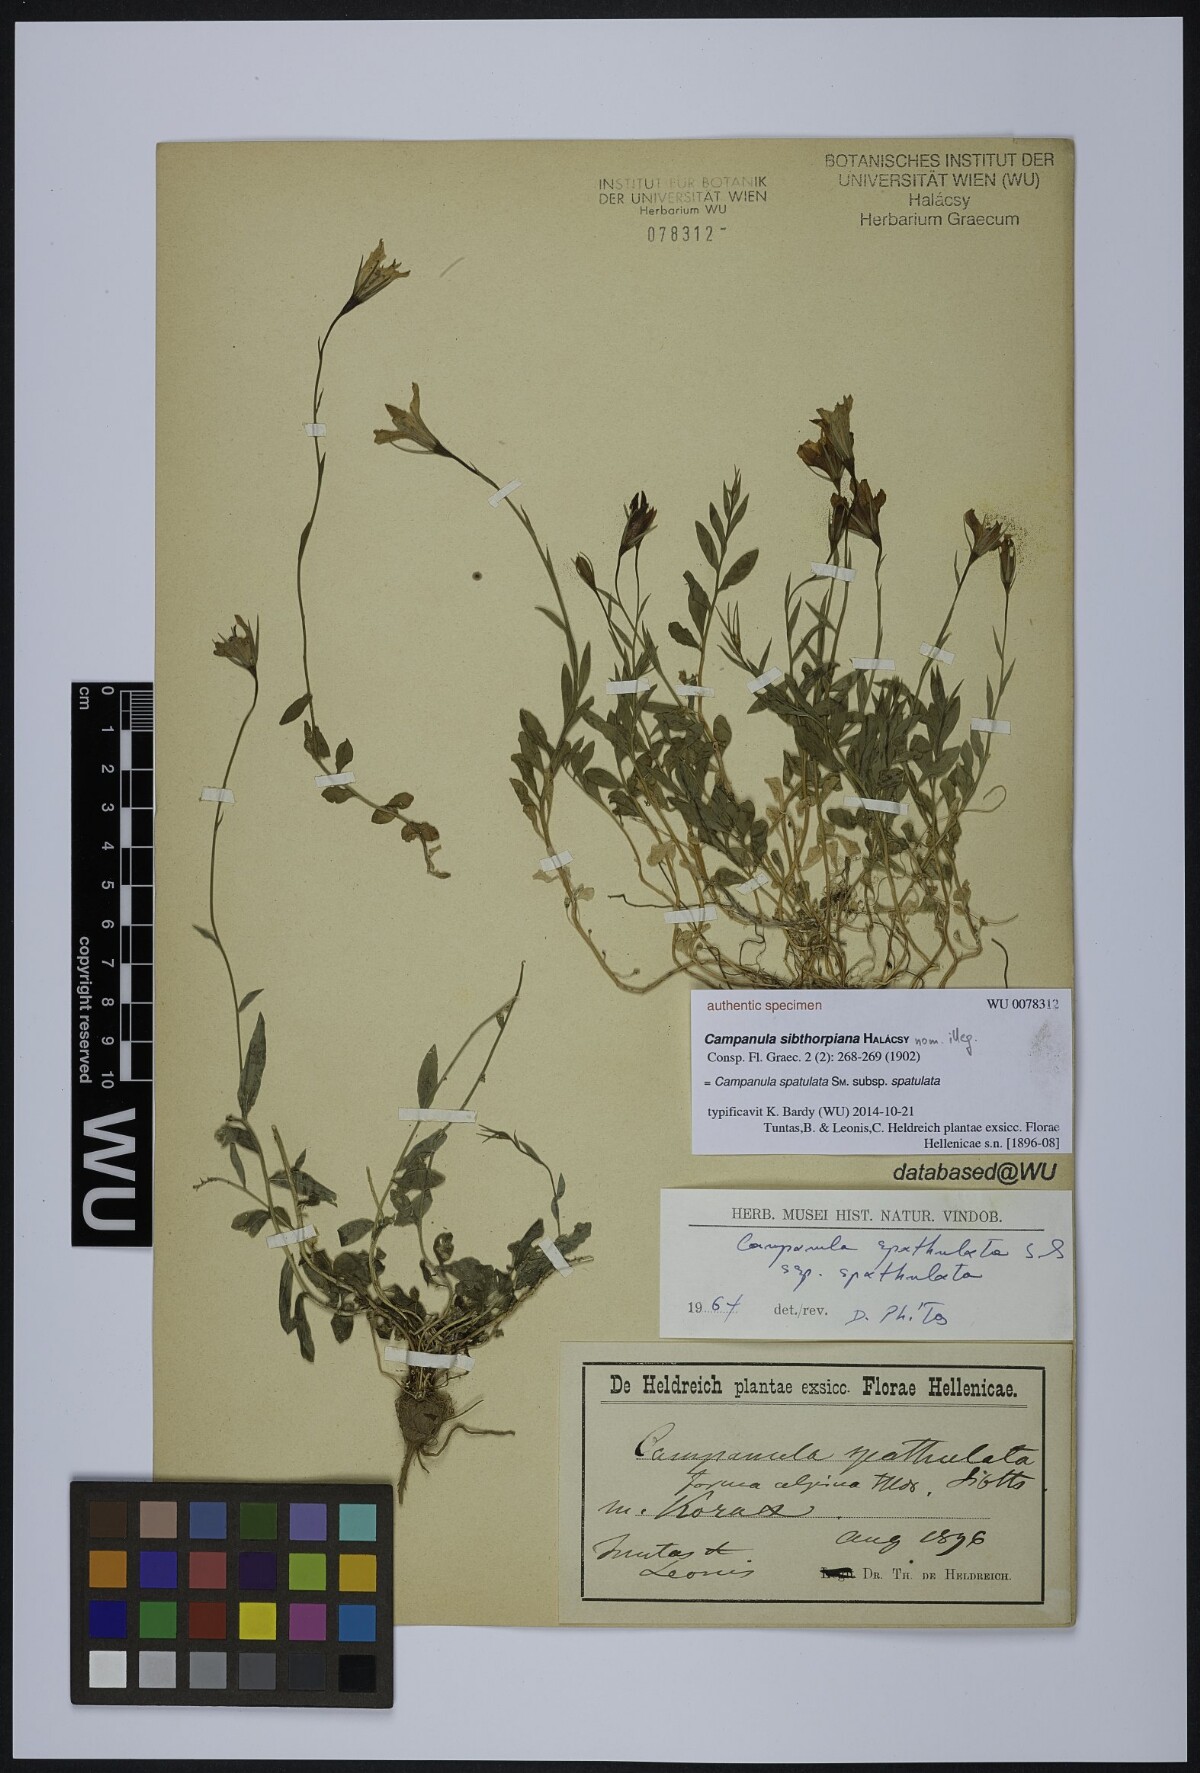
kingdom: Plantae
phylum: Tracheophyta
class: Magnoliopsida
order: Asterales
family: Campanulaceae
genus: Campanula
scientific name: Campanula spatulata
